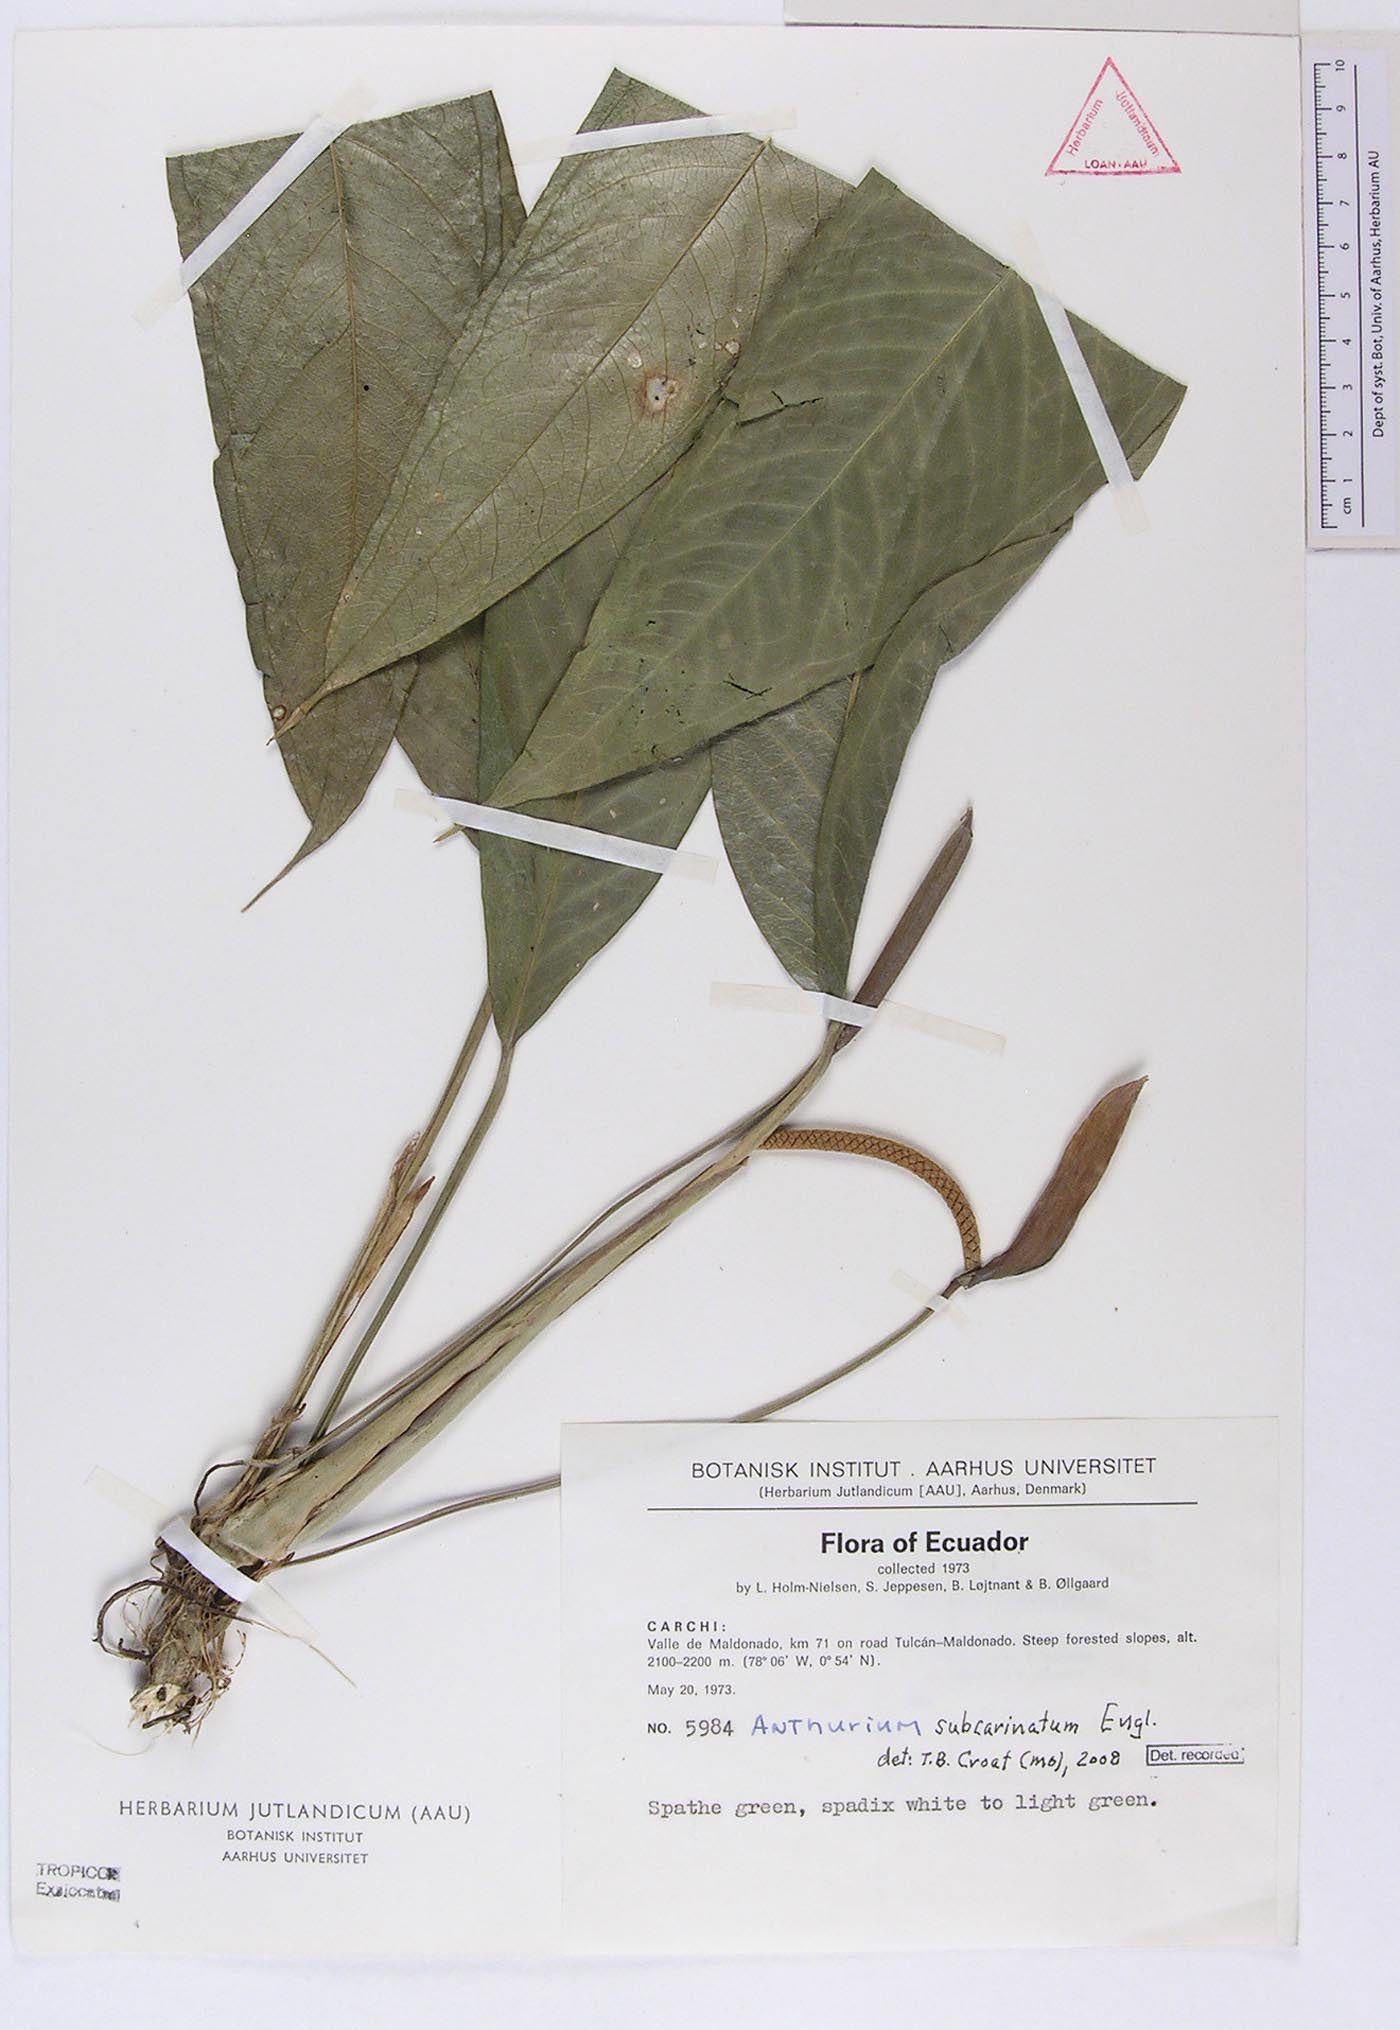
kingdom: Plantae
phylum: Tracheophyta
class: Liliopsida
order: Alismatales
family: Araceae
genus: Anthurium
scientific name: Anthurium subcarinatum
